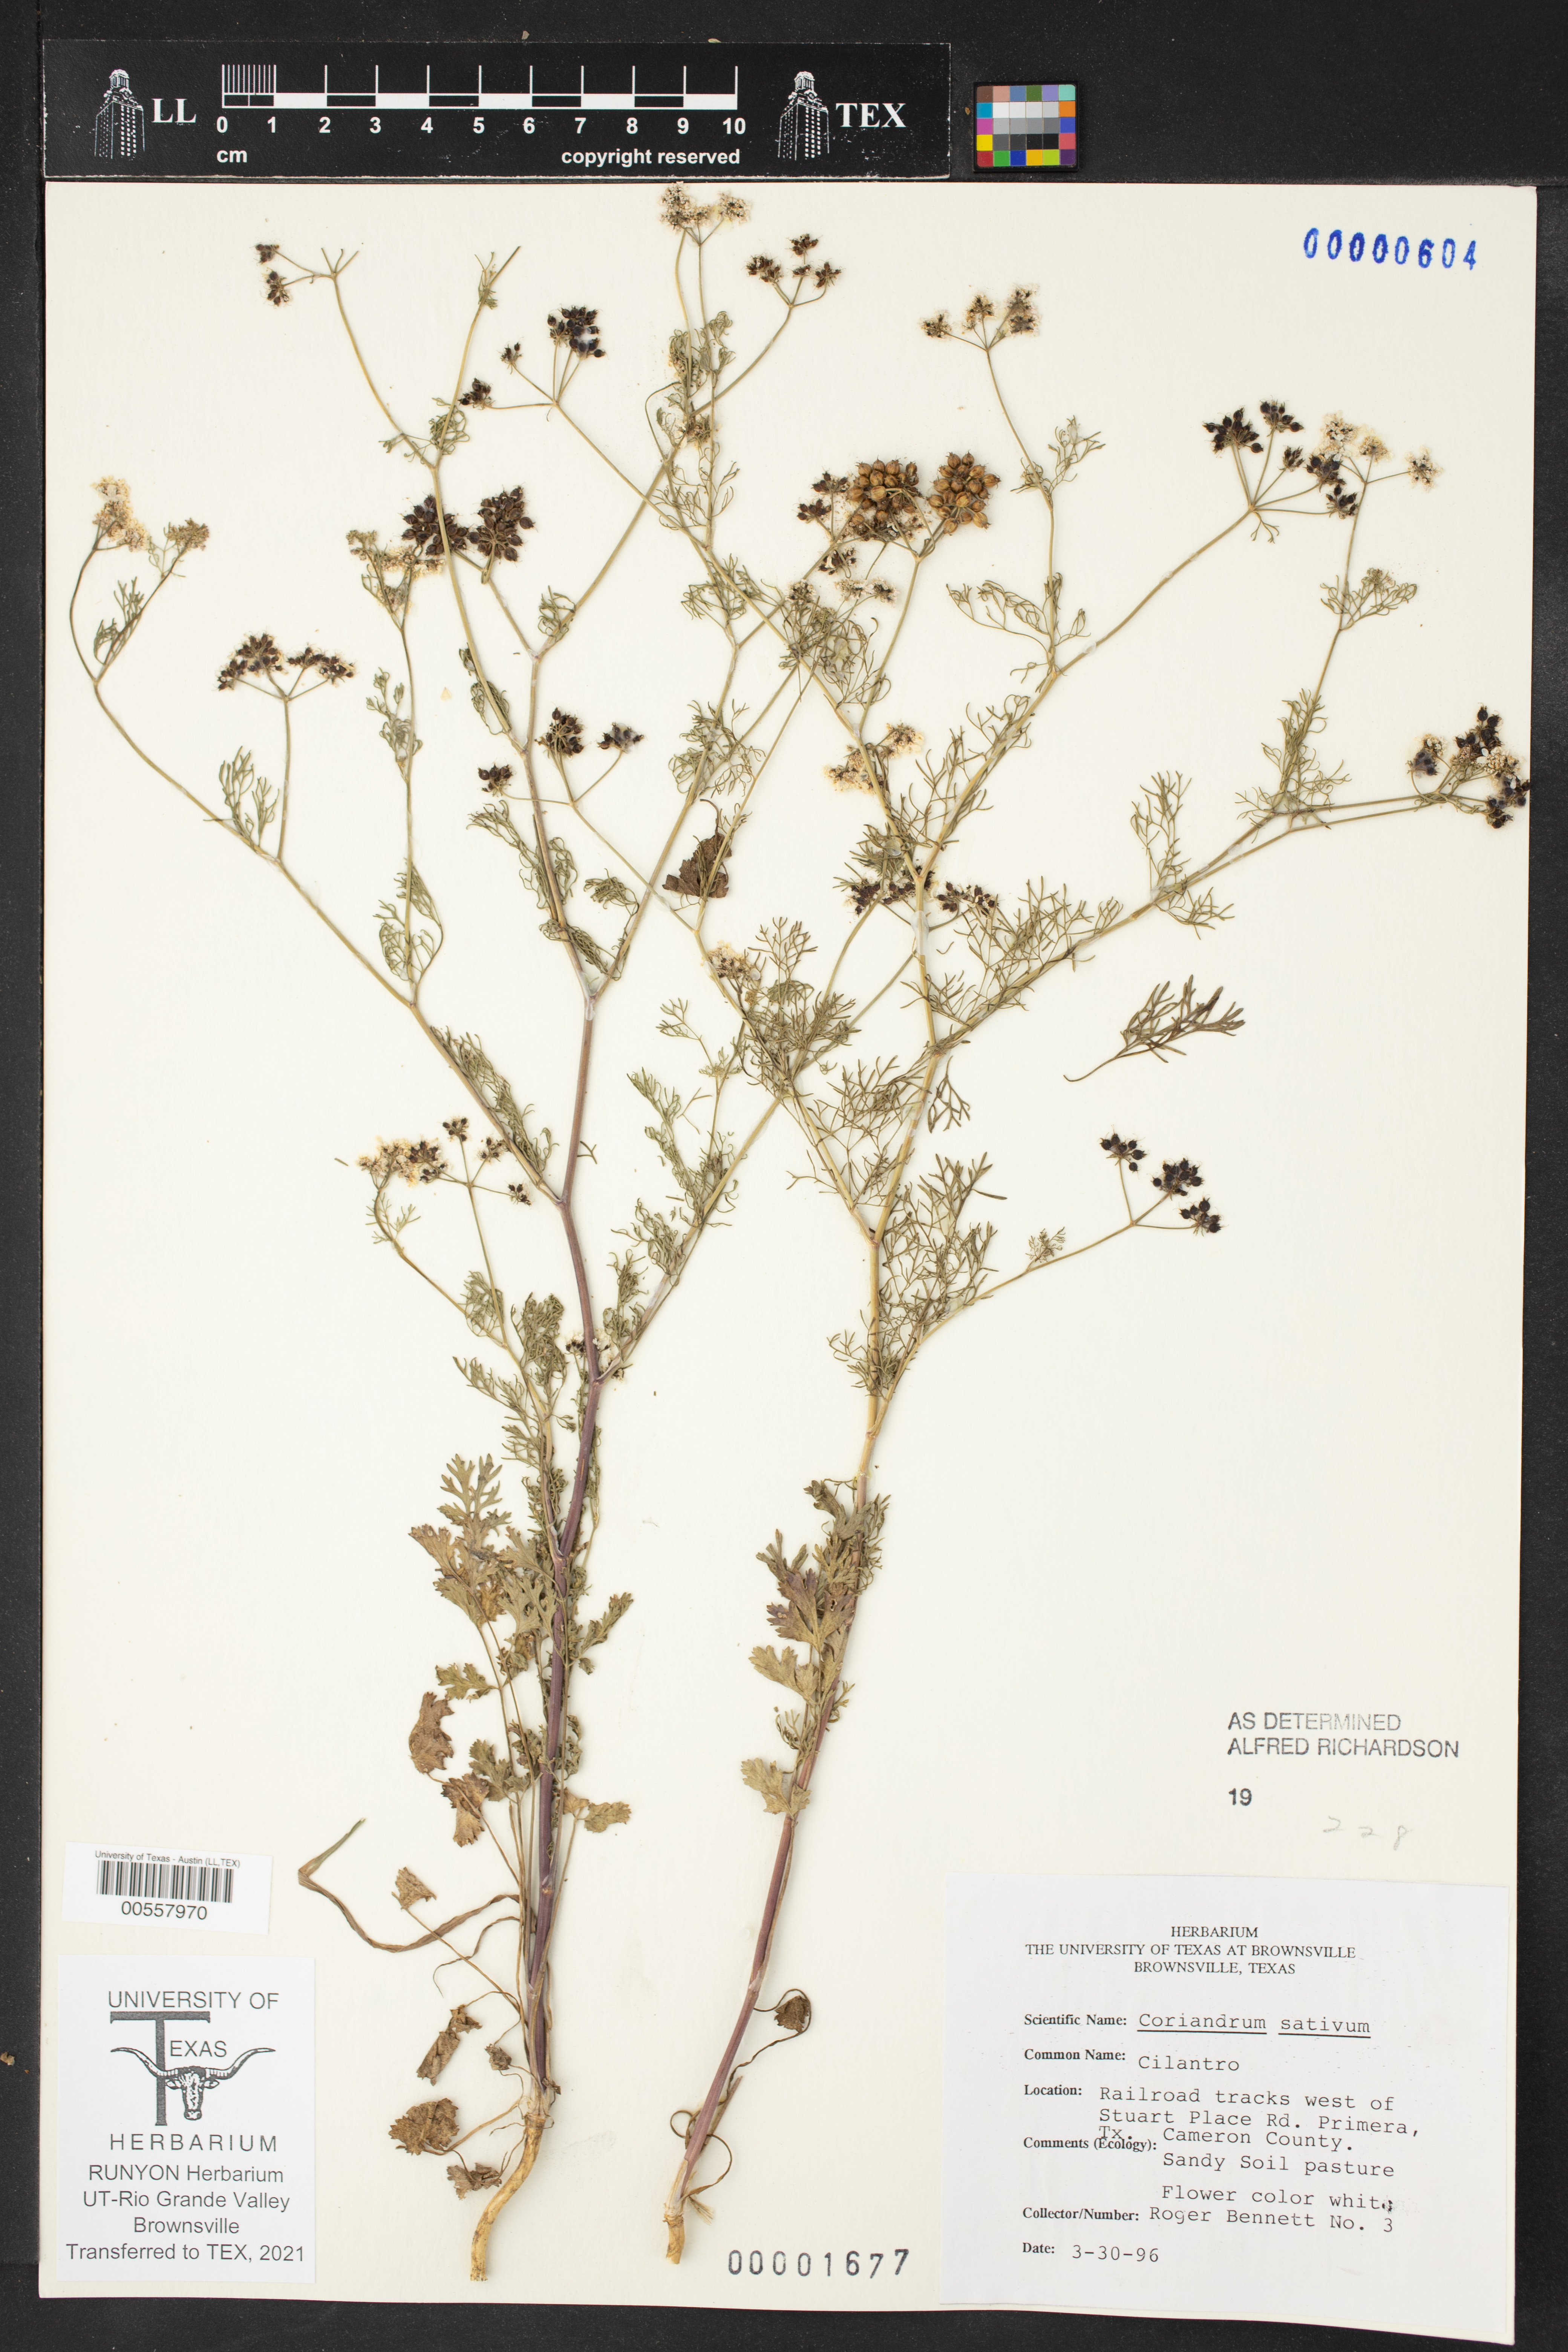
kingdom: Plantae
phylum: Tracheophyta
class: Magnoliopsida
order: Apiales
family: Apiaceae
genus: Coriandrum
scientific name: Coriandrum sativum
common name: Coriander
